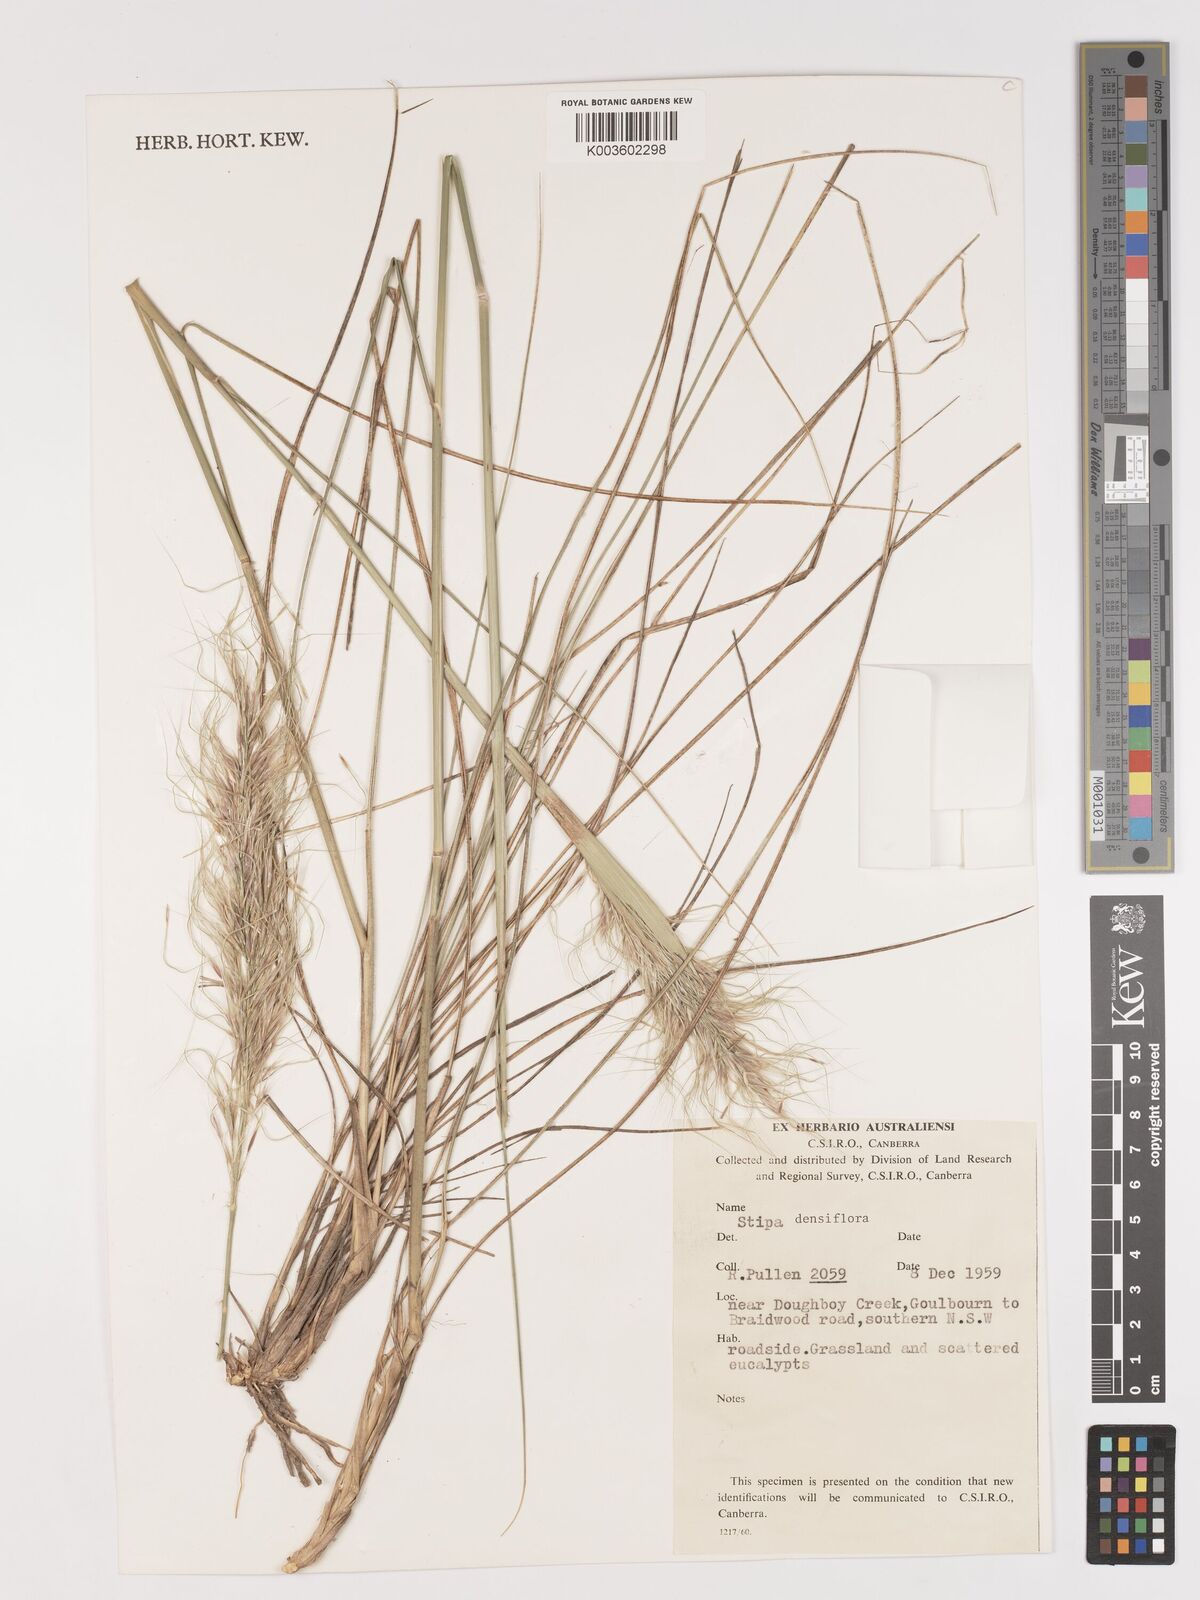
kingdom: Plantae
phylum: Tracheophyta
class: Liliopsida
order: Poales
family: Poaceae
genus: Stipa
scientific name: Stipa
